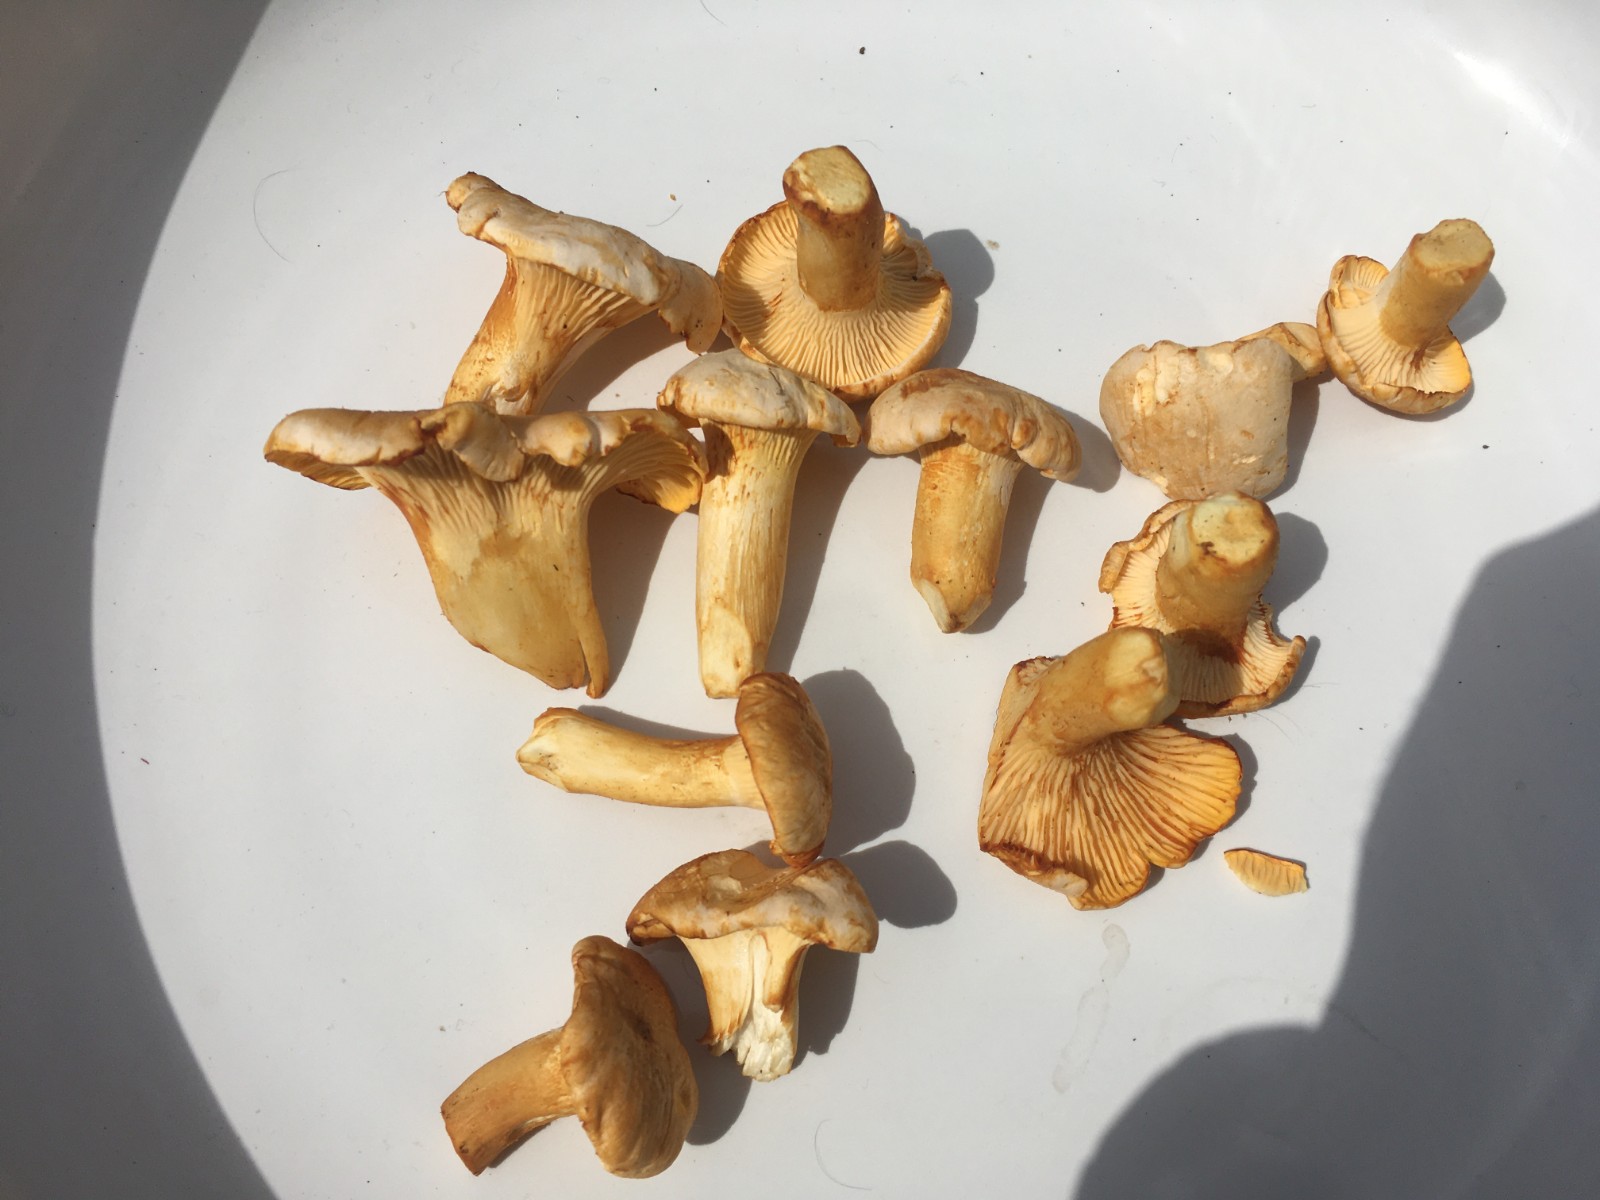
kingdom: Fungi
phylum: Basidiomycota
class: Agaricomycetes
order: Cantharellales
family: Hydnaceae
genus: Cantharellus
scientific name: Cantharellus pallens
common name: bleg kantarel
